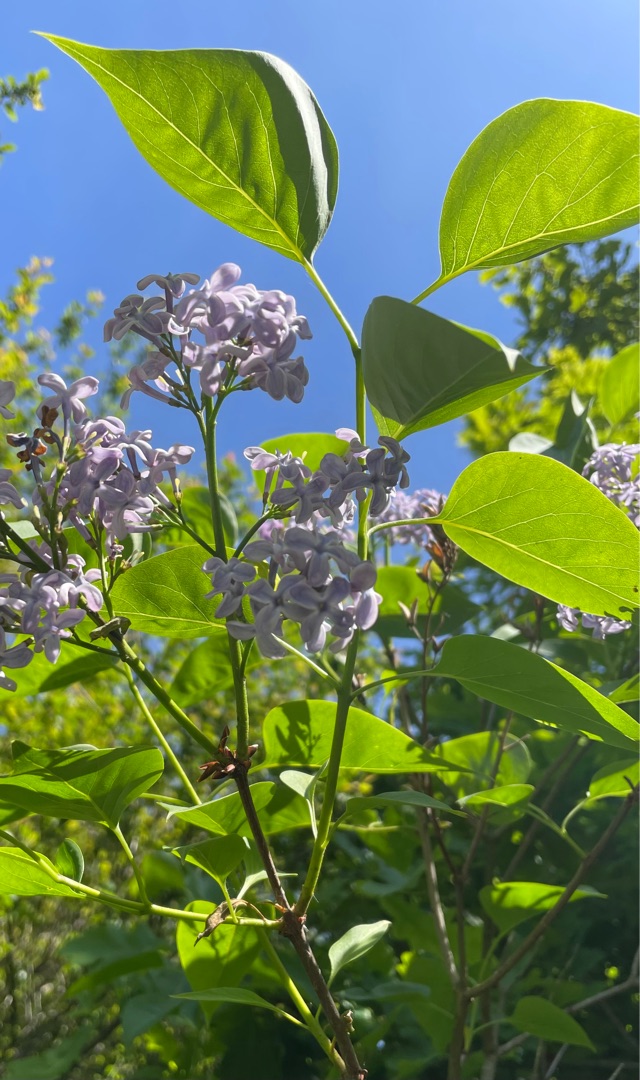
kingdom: Plantae
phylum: Tracheophyta
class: Magnoliopsida
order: Lamiales
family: Oleaceae
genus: Syringa
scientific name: Syringa vulgaris
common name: Syren
